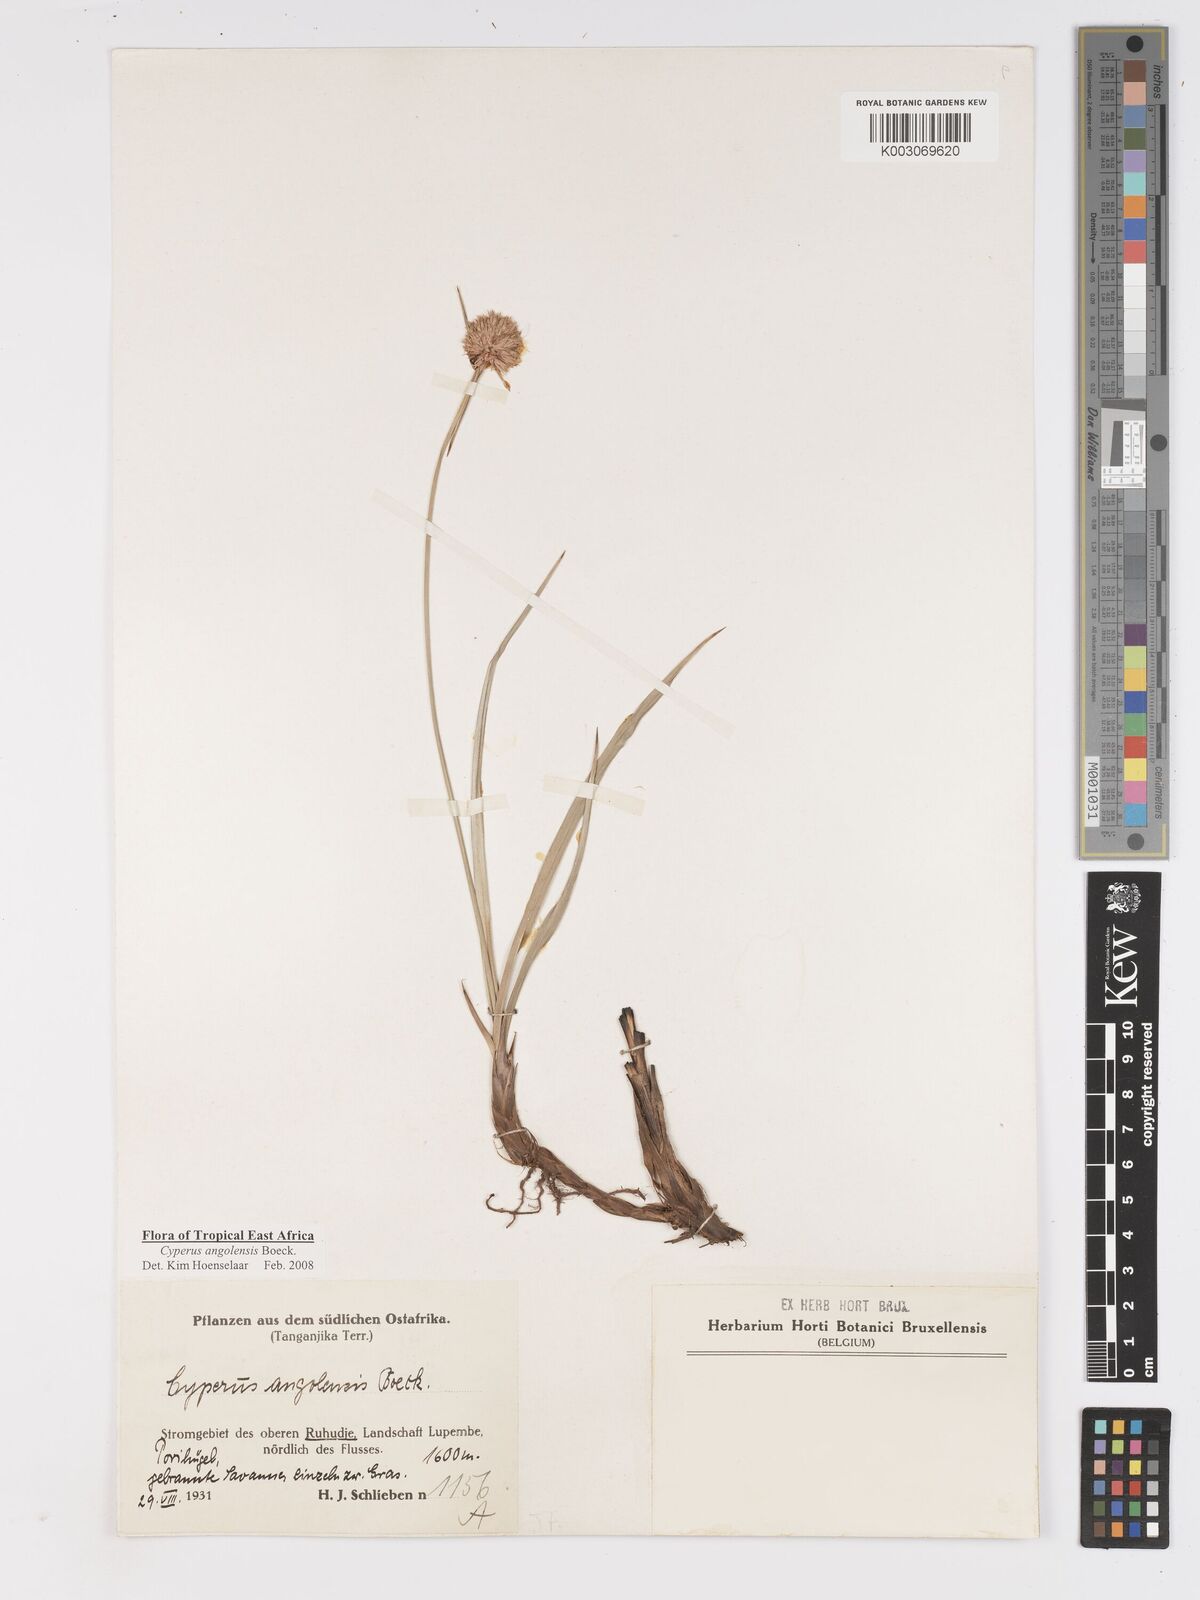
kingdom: Plantae
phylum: Tracheophyta
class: Liliopsida
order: Poales
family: Cyperaceae
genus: Cyperus
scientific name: Cyperus angolensis
